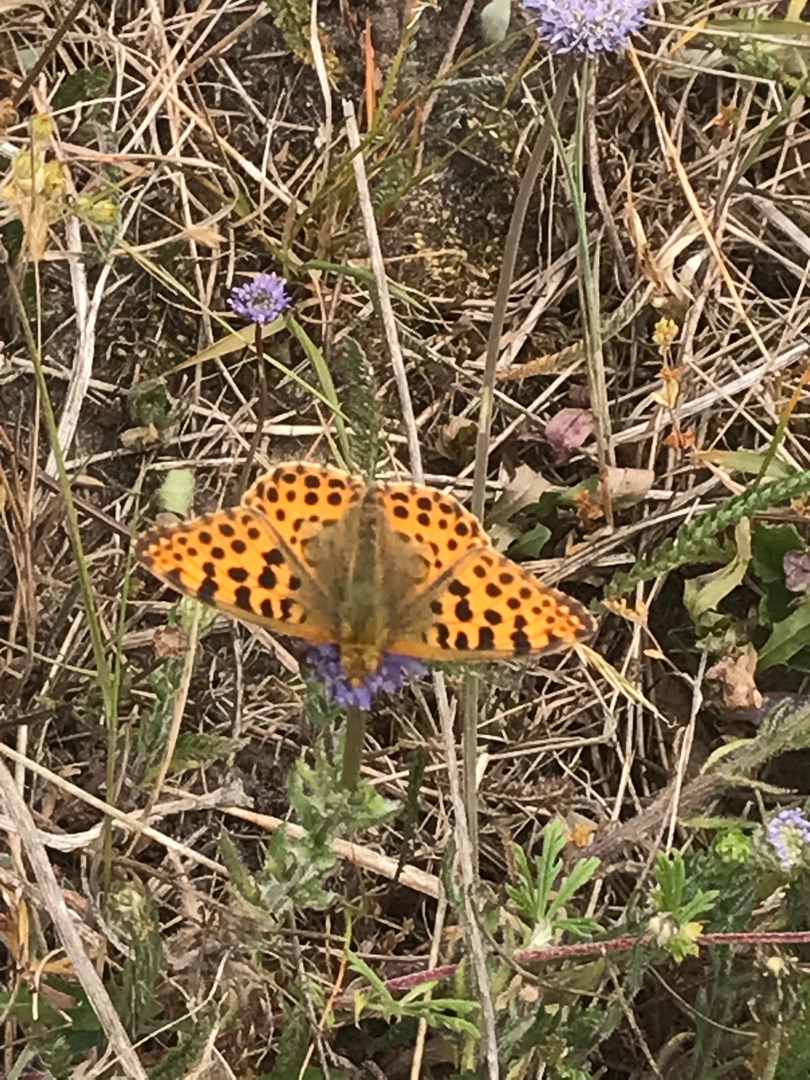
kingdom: Animalia
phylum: Arthropoda
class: Insecta
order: Lepidoptera
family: Nymphalidae
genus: Issoria
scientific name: Issoria lathonia
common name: Storplettet perlemorsommerfugl
